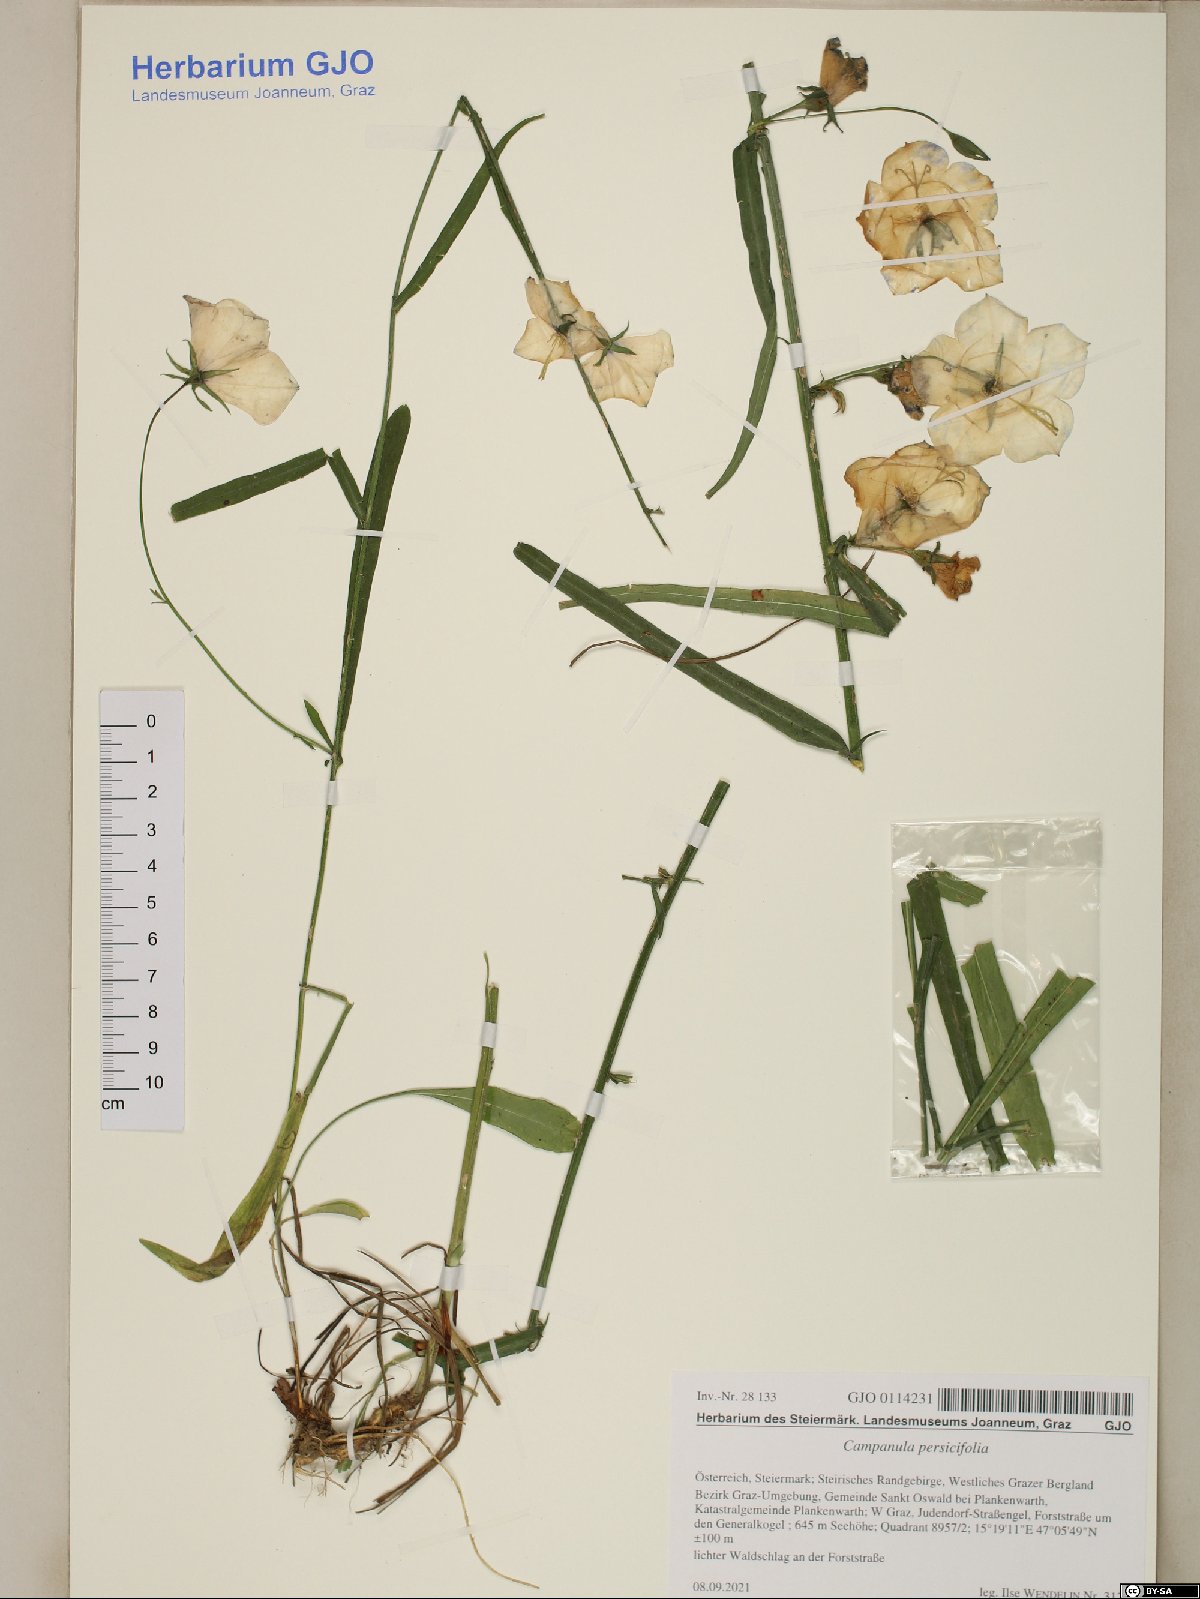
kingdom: Plantae
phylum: Tracheophyta
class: Magnoliopsida
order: Asterales
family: Campanulaceae
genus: Campanula
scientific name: Campanula persicifolia
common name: Peach-leaved bellflower
